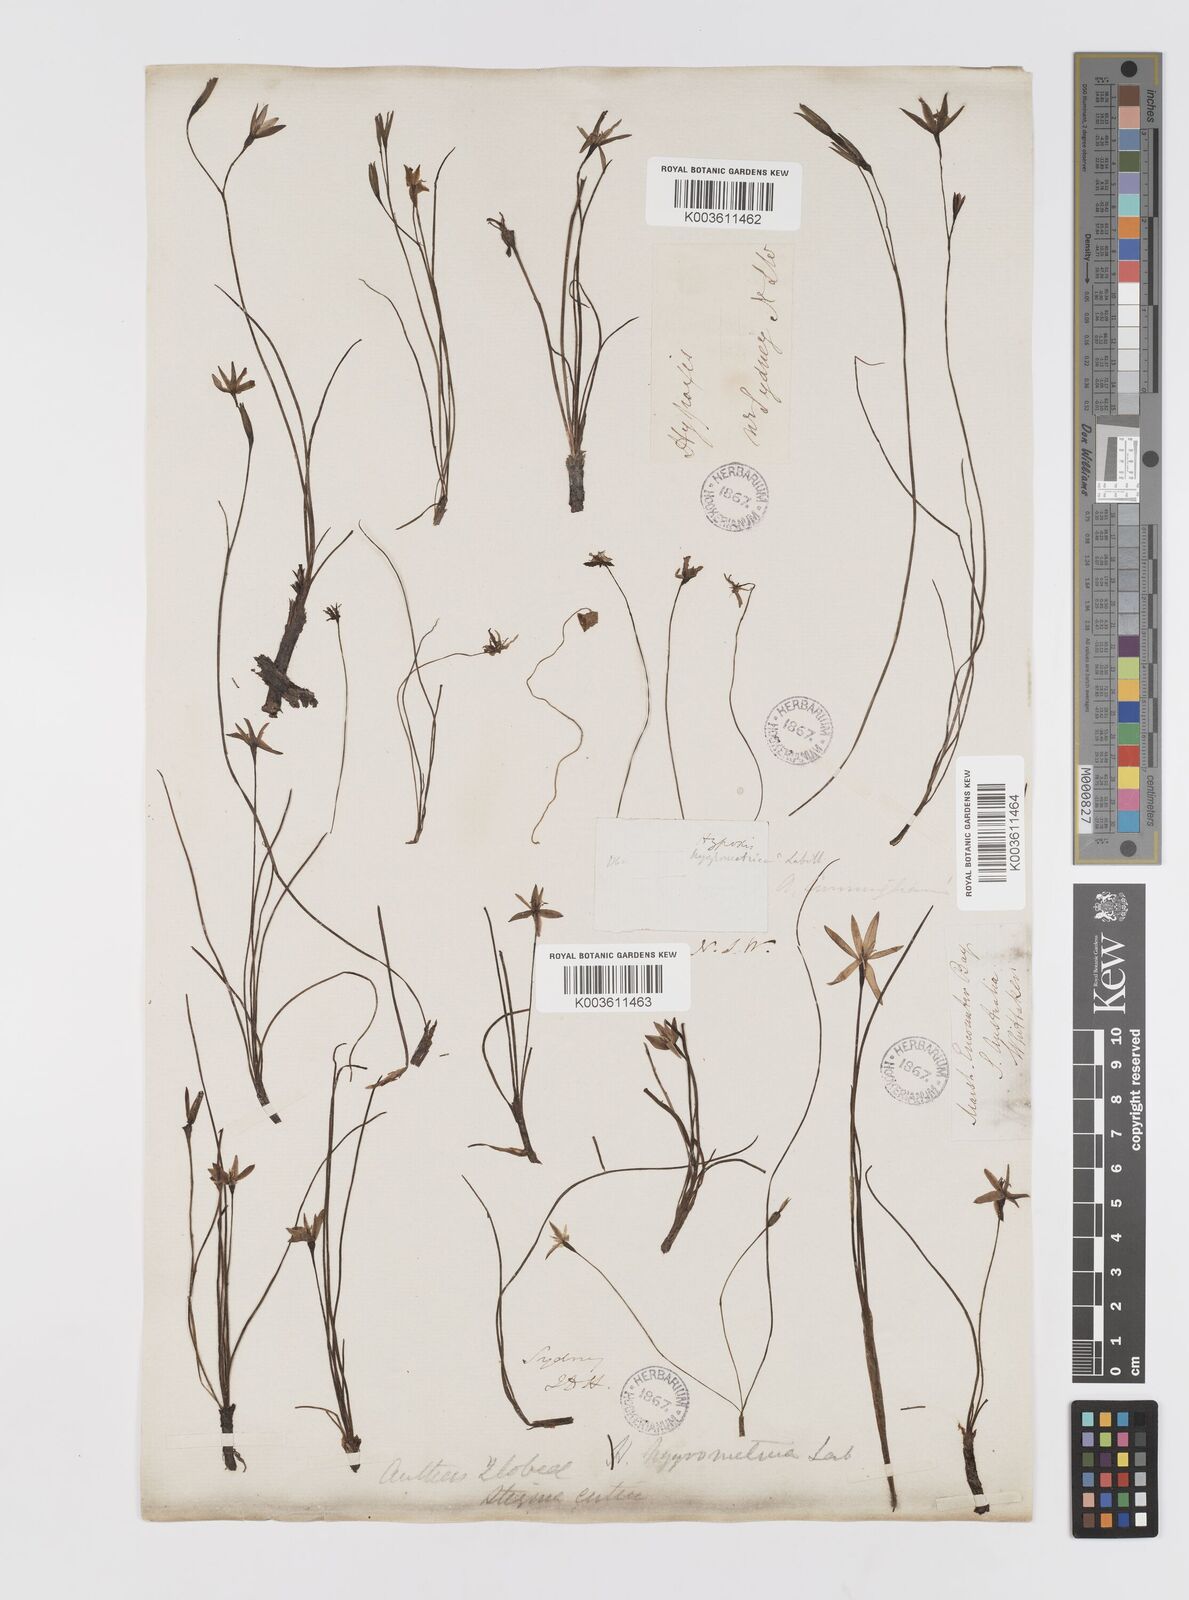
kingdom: Plantae
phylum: Tracheophyta
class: Liliopsida
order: Asparagales
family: Hypoxidaceae
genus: Hypoxis
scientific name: Hypoxis hygrometrica
